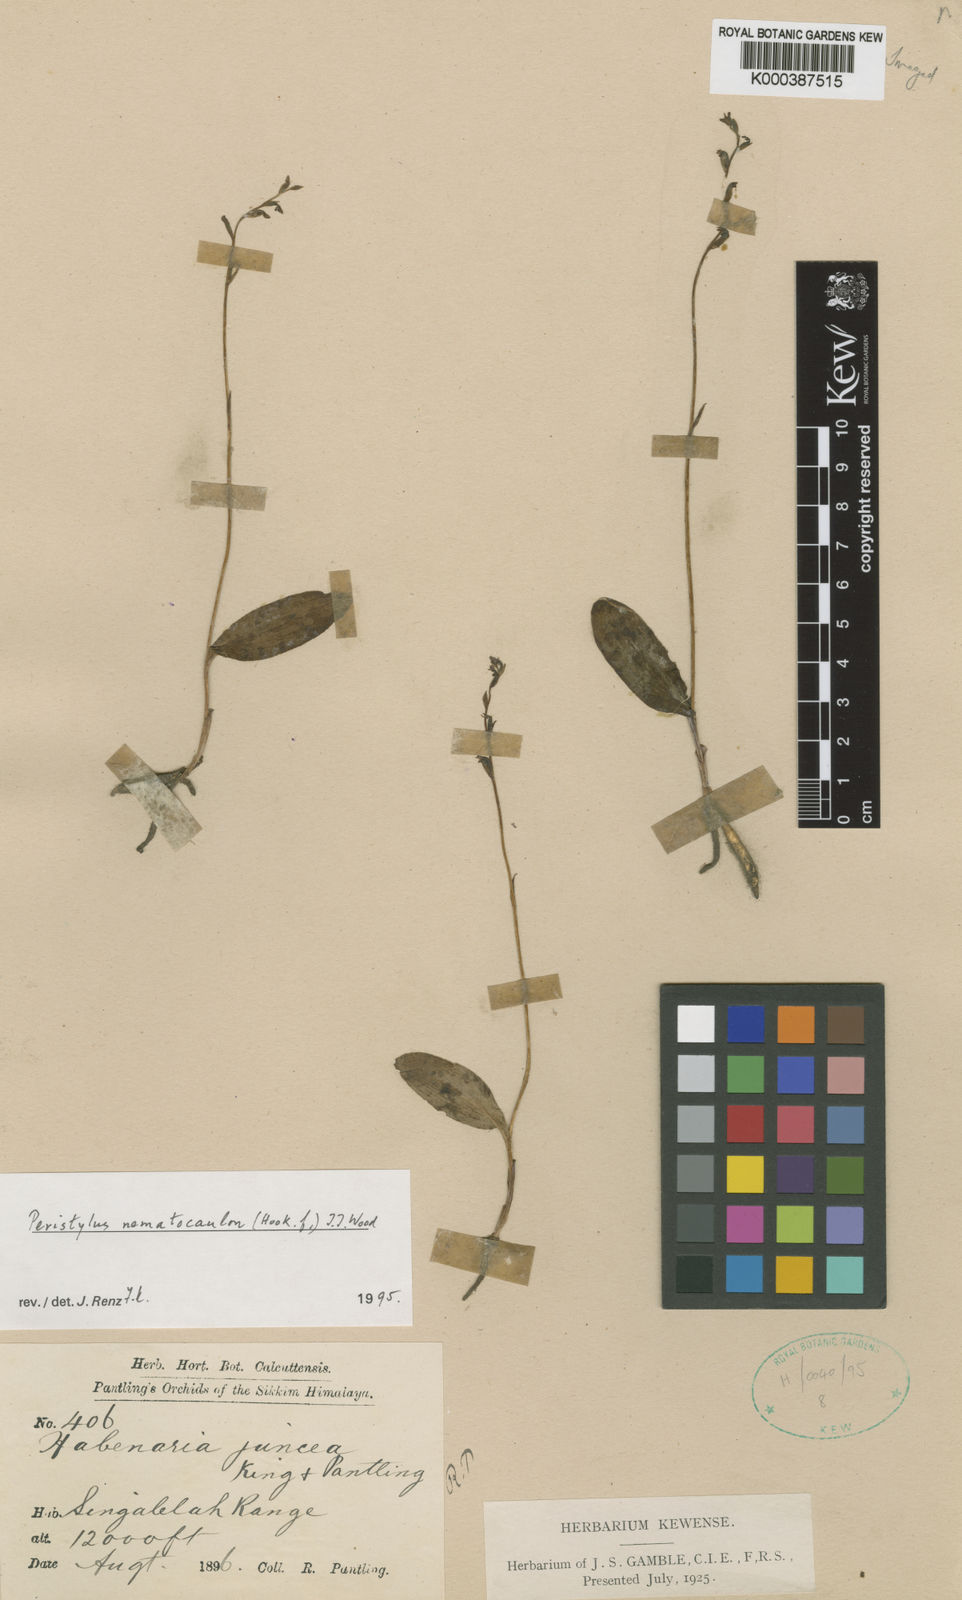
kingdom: Plantae
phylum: Tracheophyta
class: Liliopsida
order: Asparagales
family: Orchidaceae
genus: Peristylus
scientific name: Peristylus
